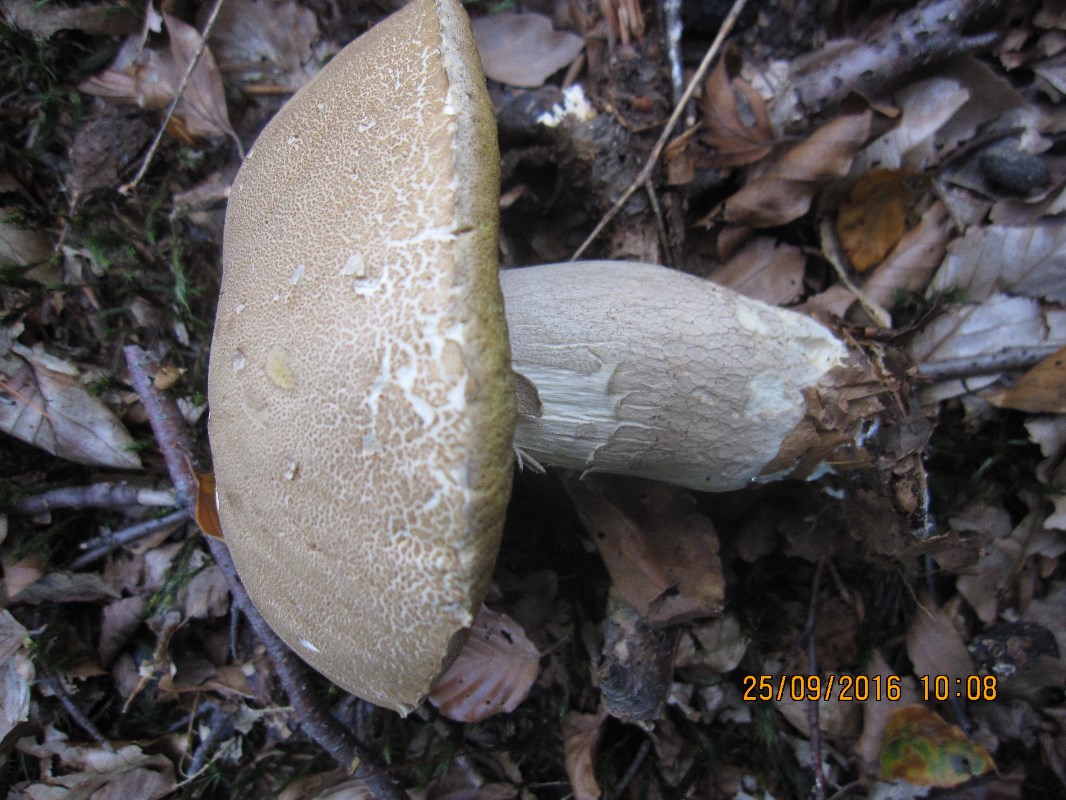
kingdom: Fungi
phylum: Basidiomycota
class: Agaricomycetes
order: Boletales
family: Boletaceae
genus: Boletus
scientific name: Boletus reticulatus
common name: sommer-rørhat
